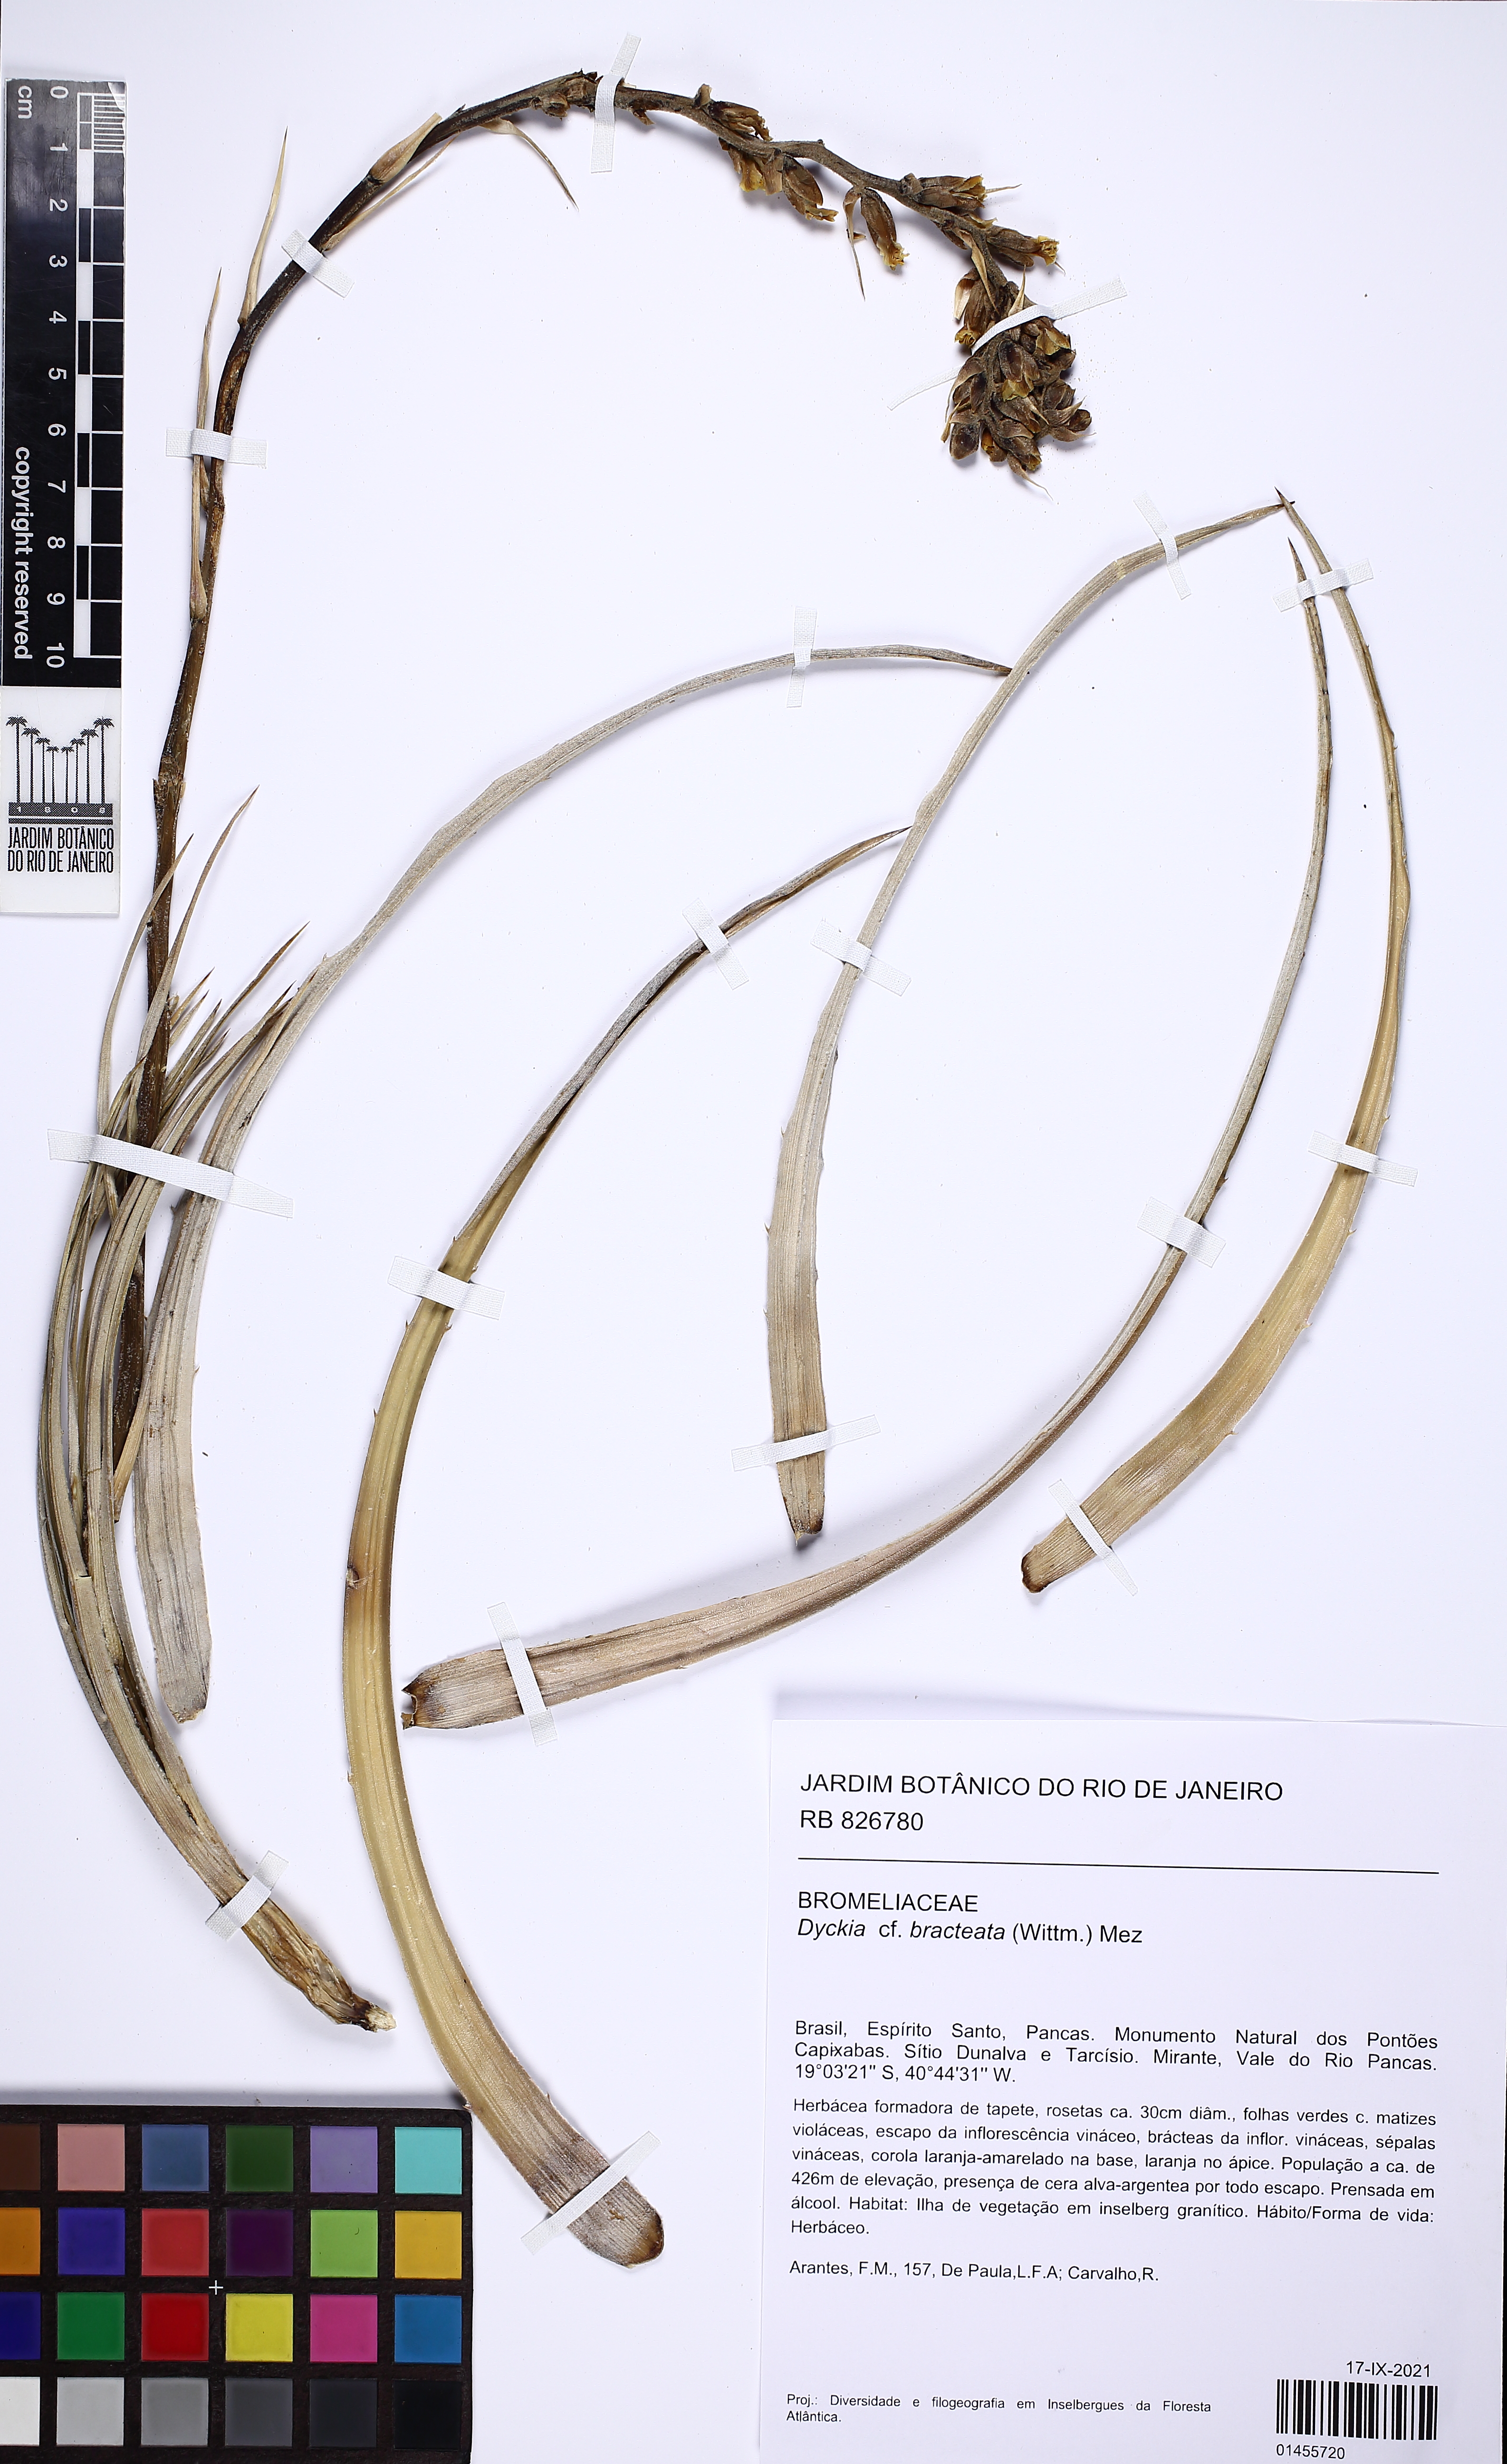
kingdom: Plantae
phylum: Tracheophyta
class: Liliopsida
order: Poales
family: Bromeliaceae
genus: Dyckia
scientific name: Dyckia bracteata
